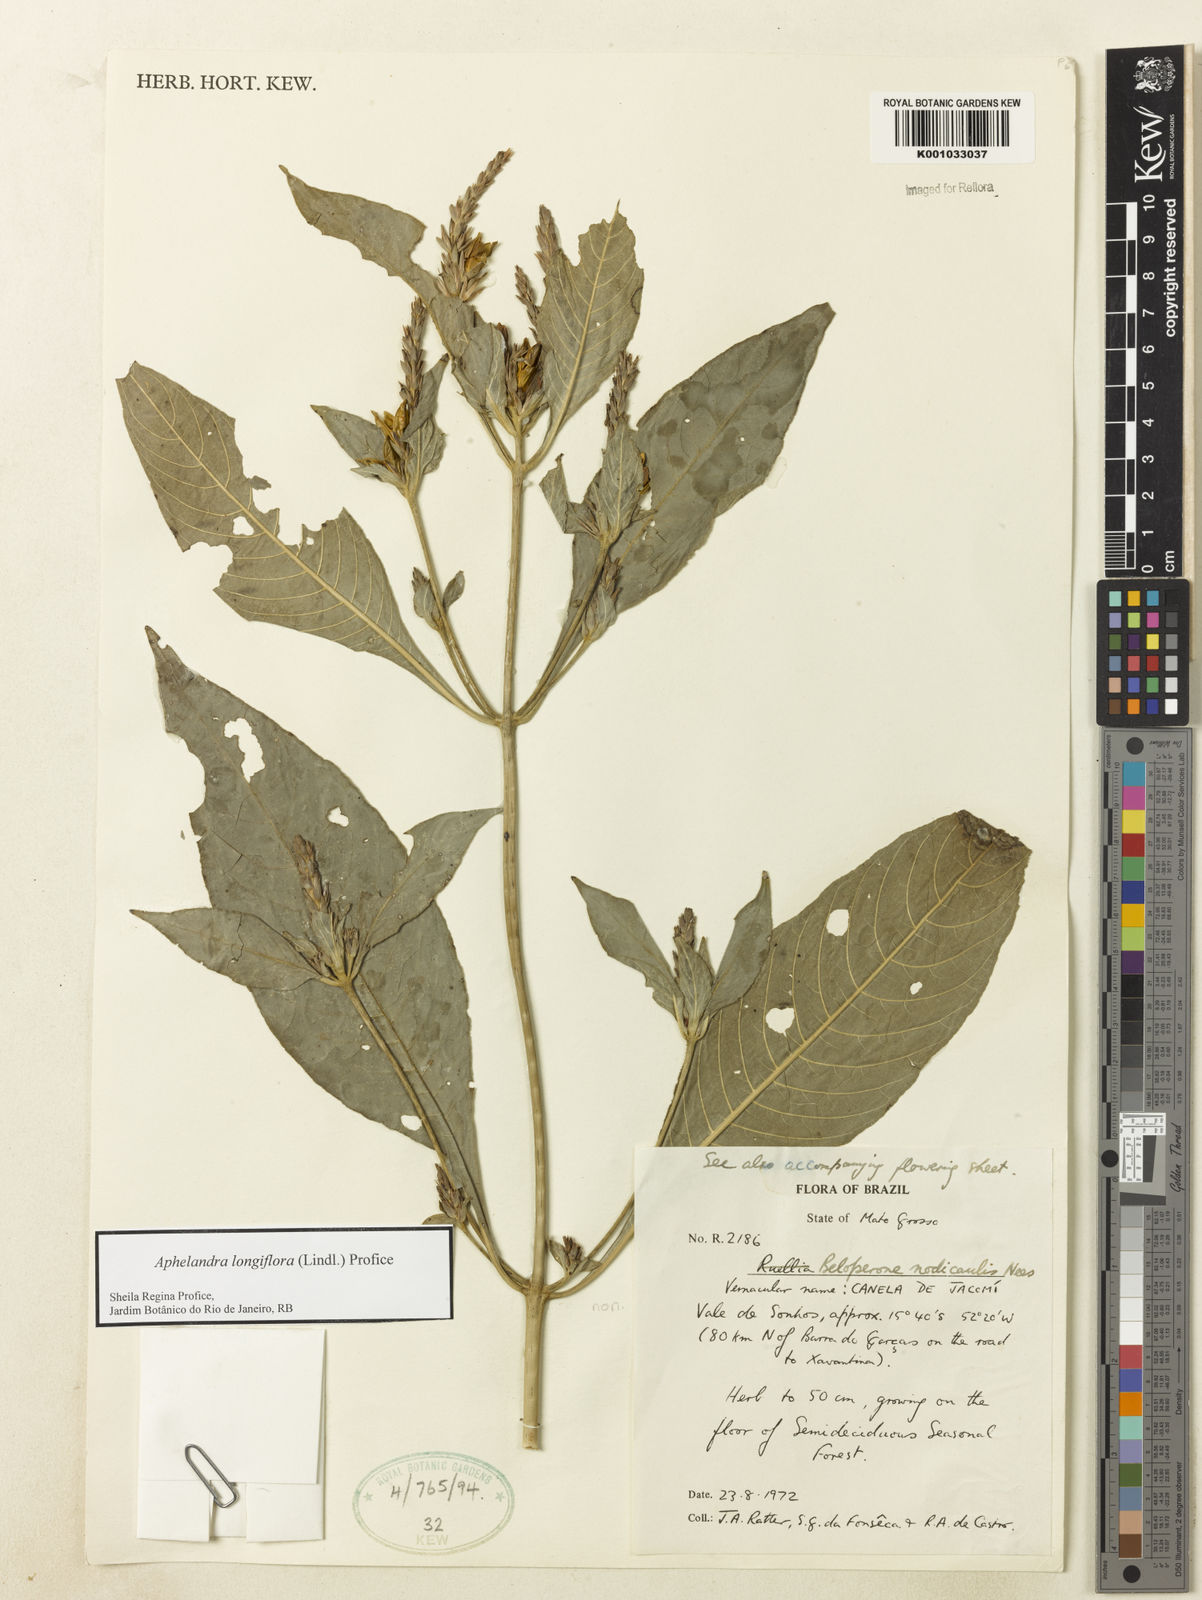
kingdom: Plantae
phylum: Tracheophyta
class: Magnoliopsida
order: Lamiales
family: Acanthaceae
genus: Aphelandra
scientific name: Aphelandra longiflora
